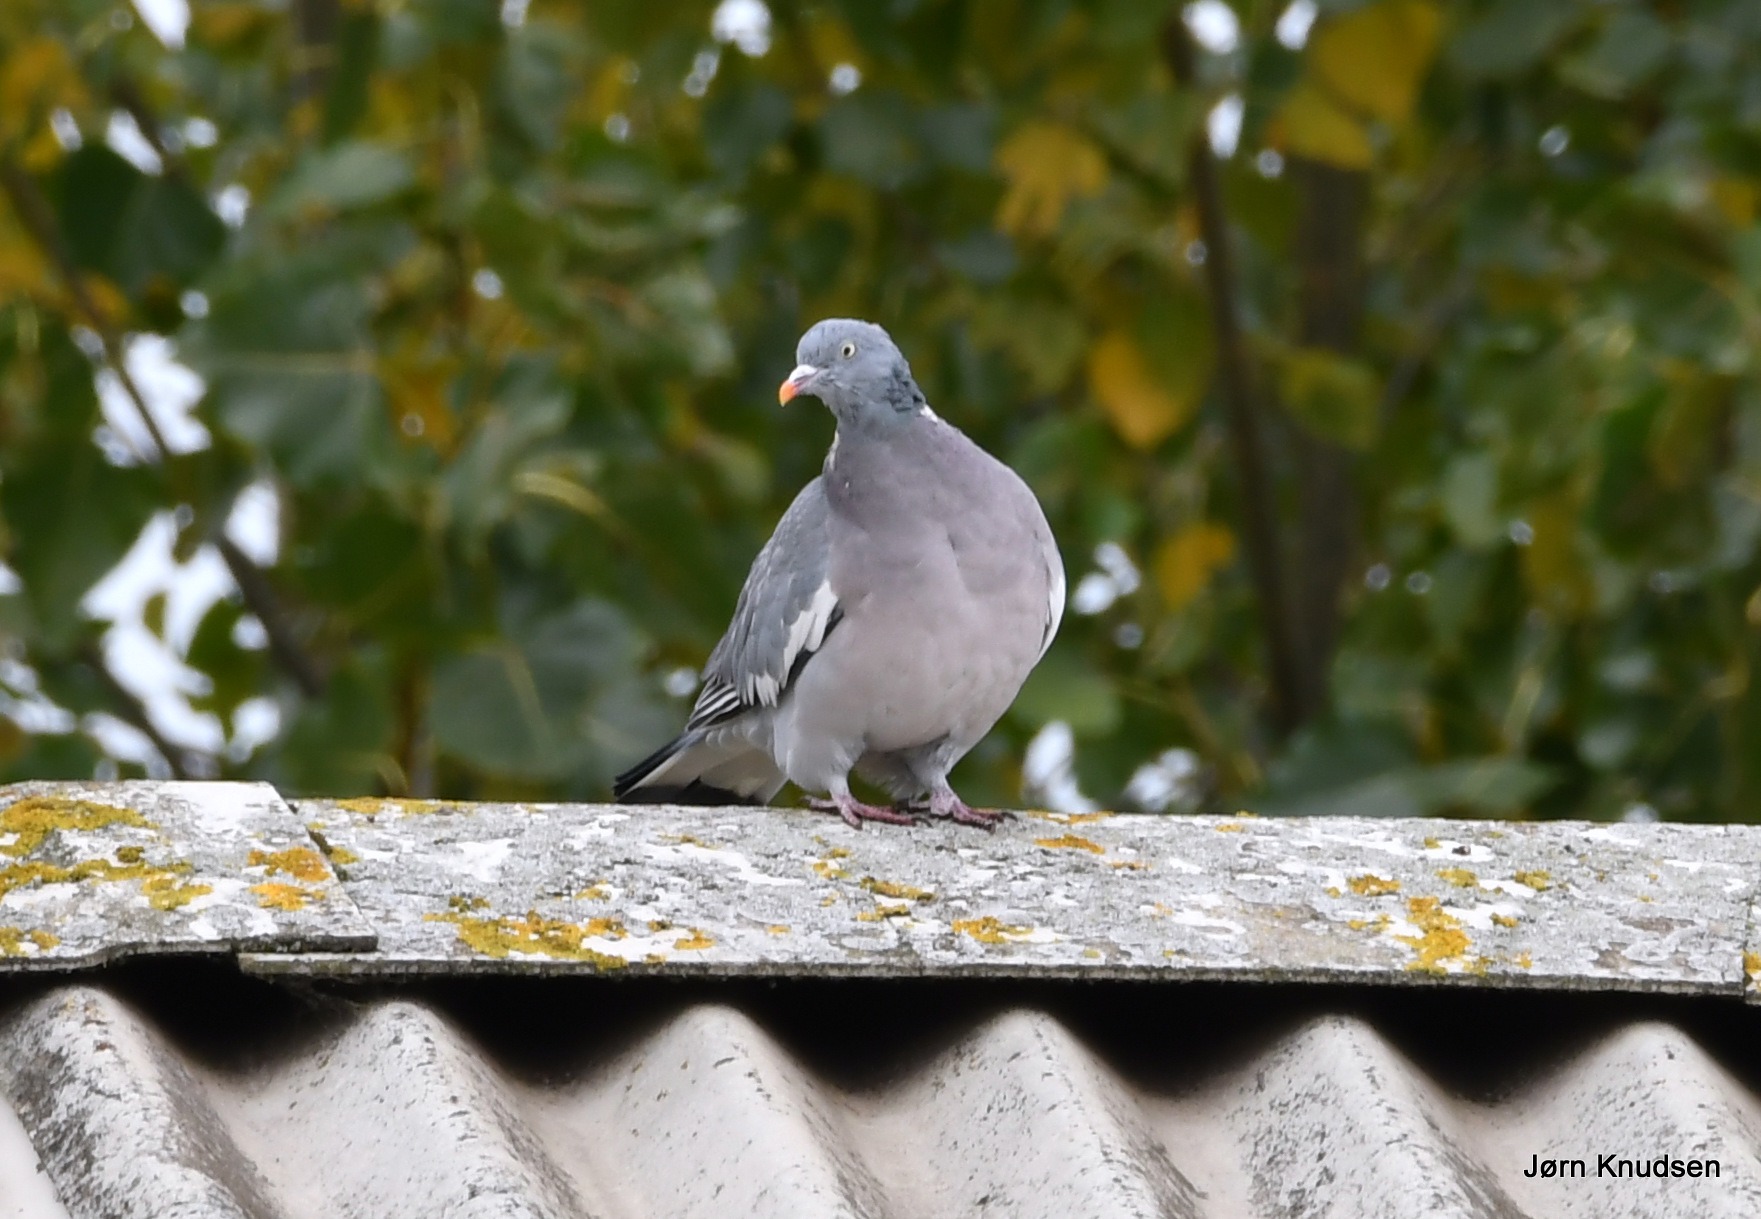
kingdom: Animalia
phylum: Chordata
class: Aves
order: Columbiformes
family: Columbidae
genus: Columba
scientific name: Columba palumbus
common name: Ringdue
